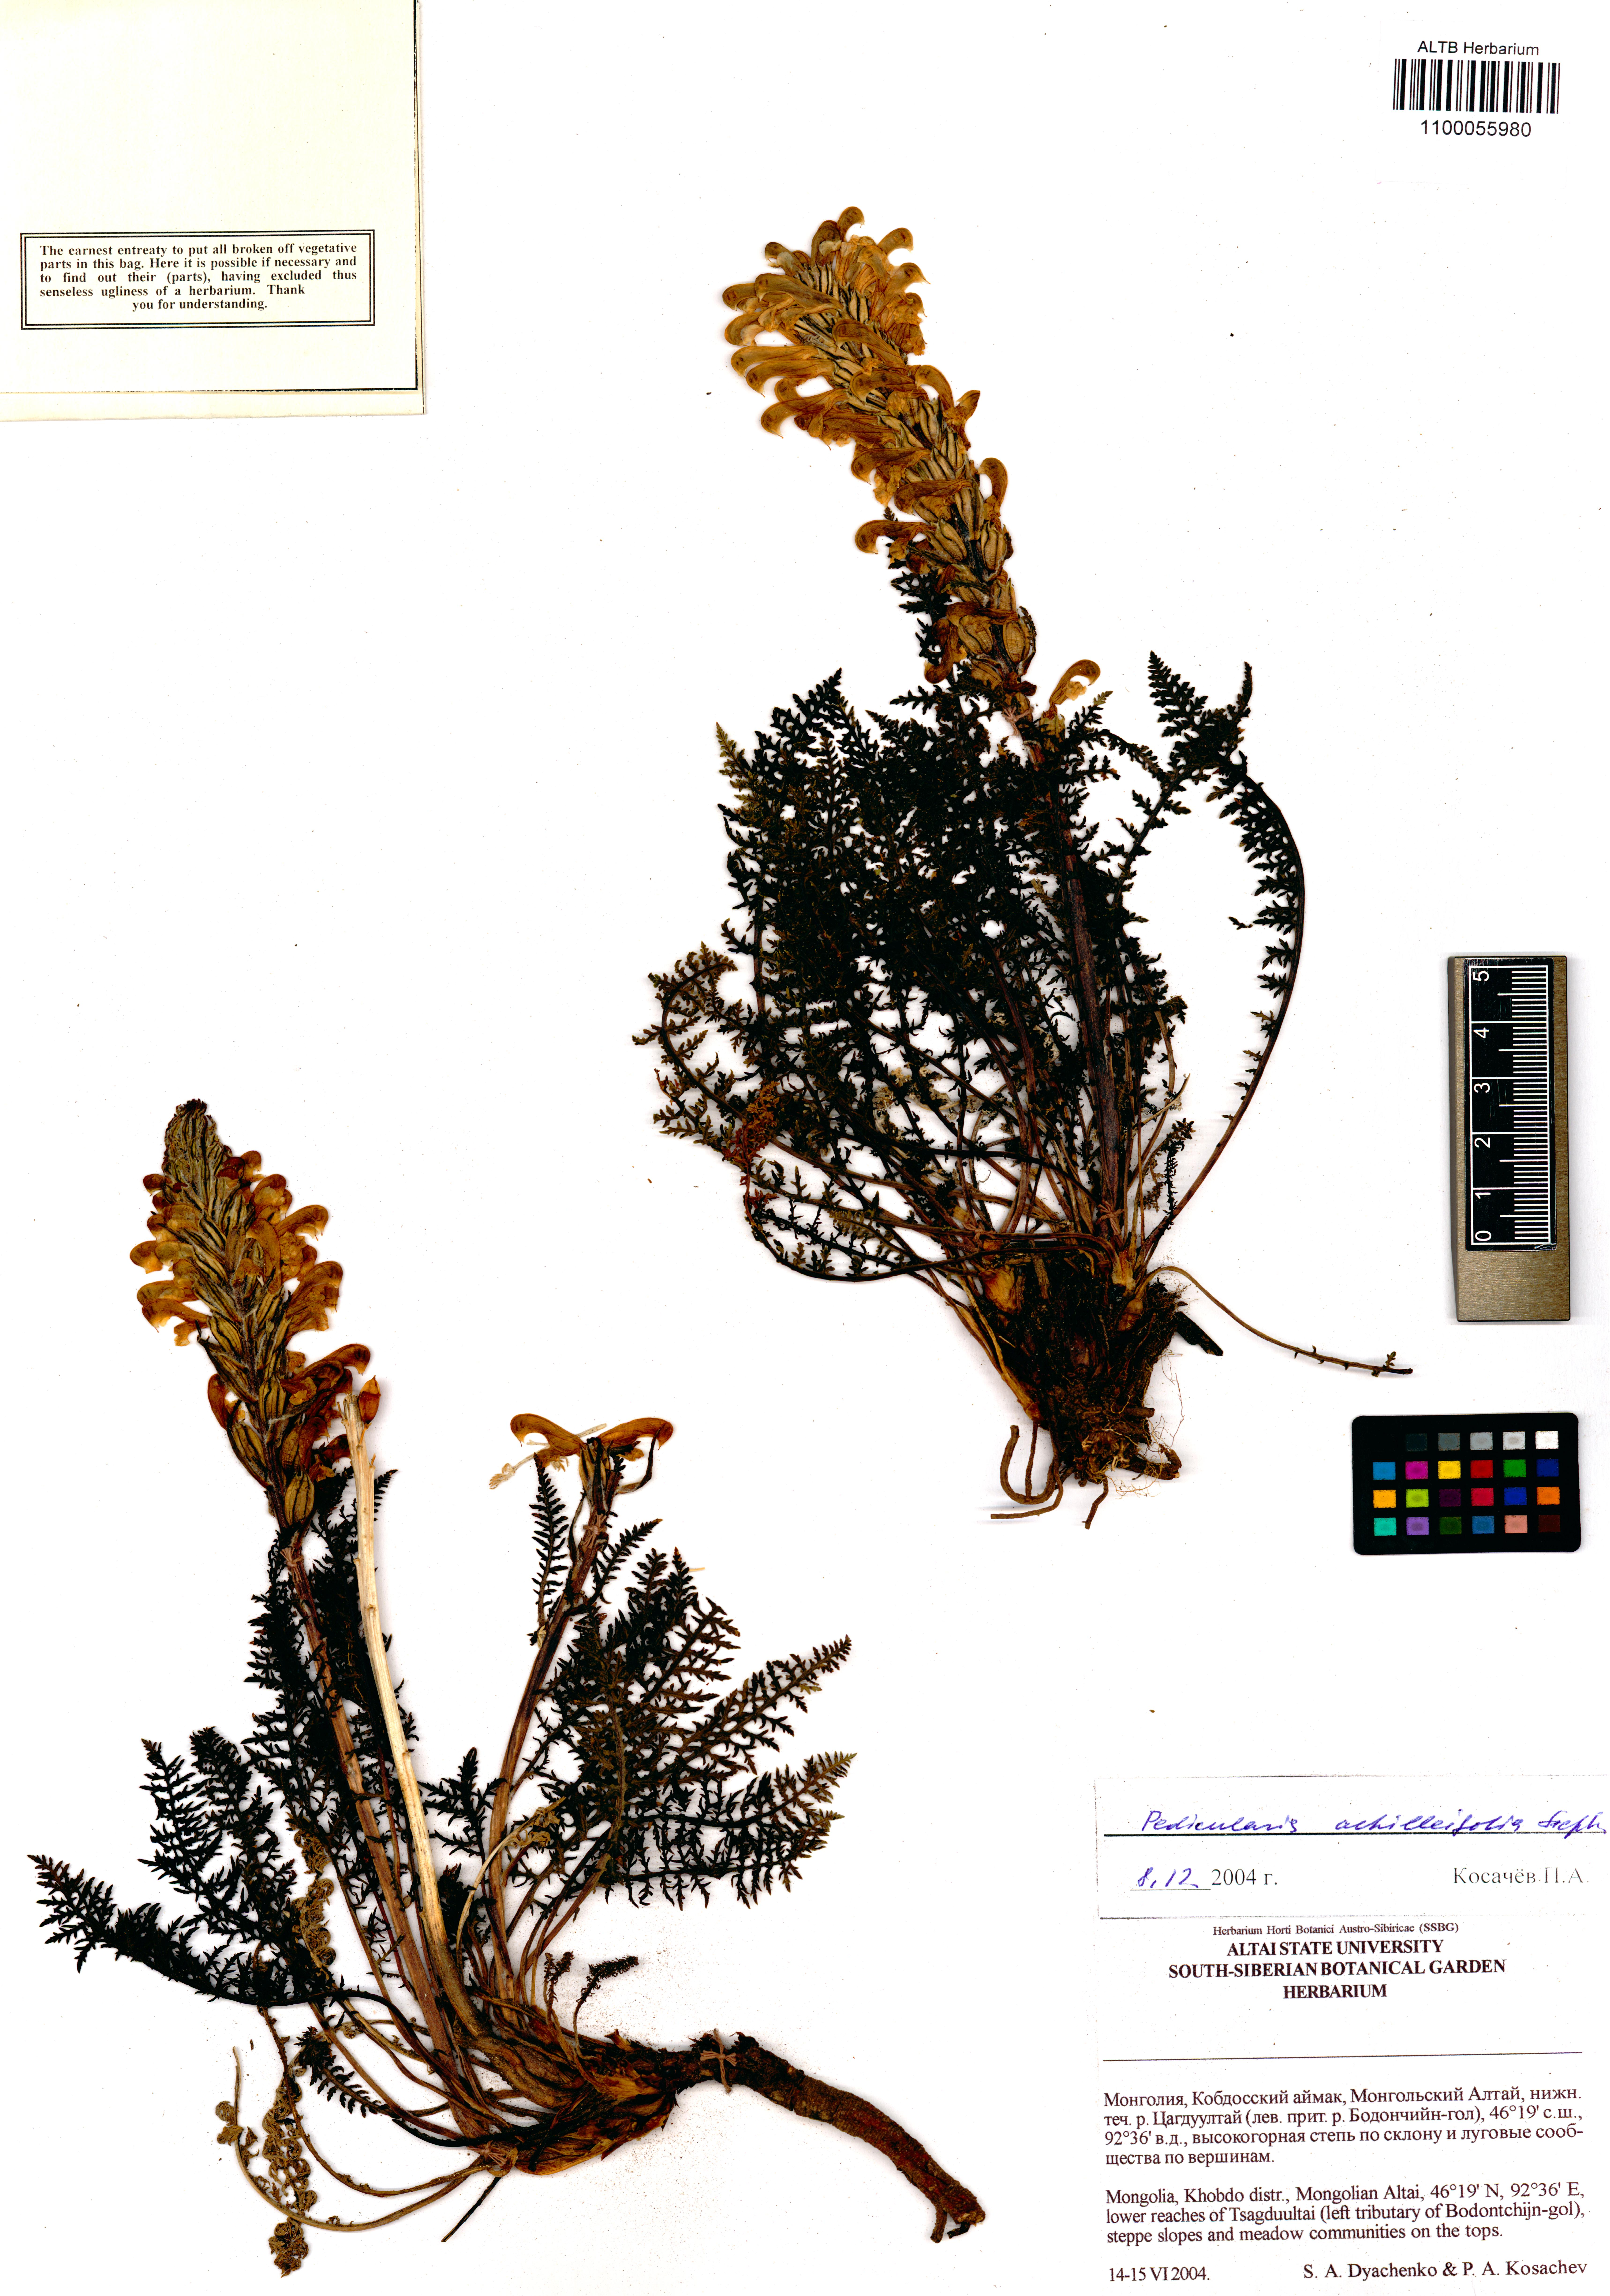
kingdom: Plantae
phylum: Tracheophyta
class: Magnoliopsida
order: Lamiales
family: Orobanchaceae
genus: Pedicularis
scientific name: Pedicularis achilleifolia
